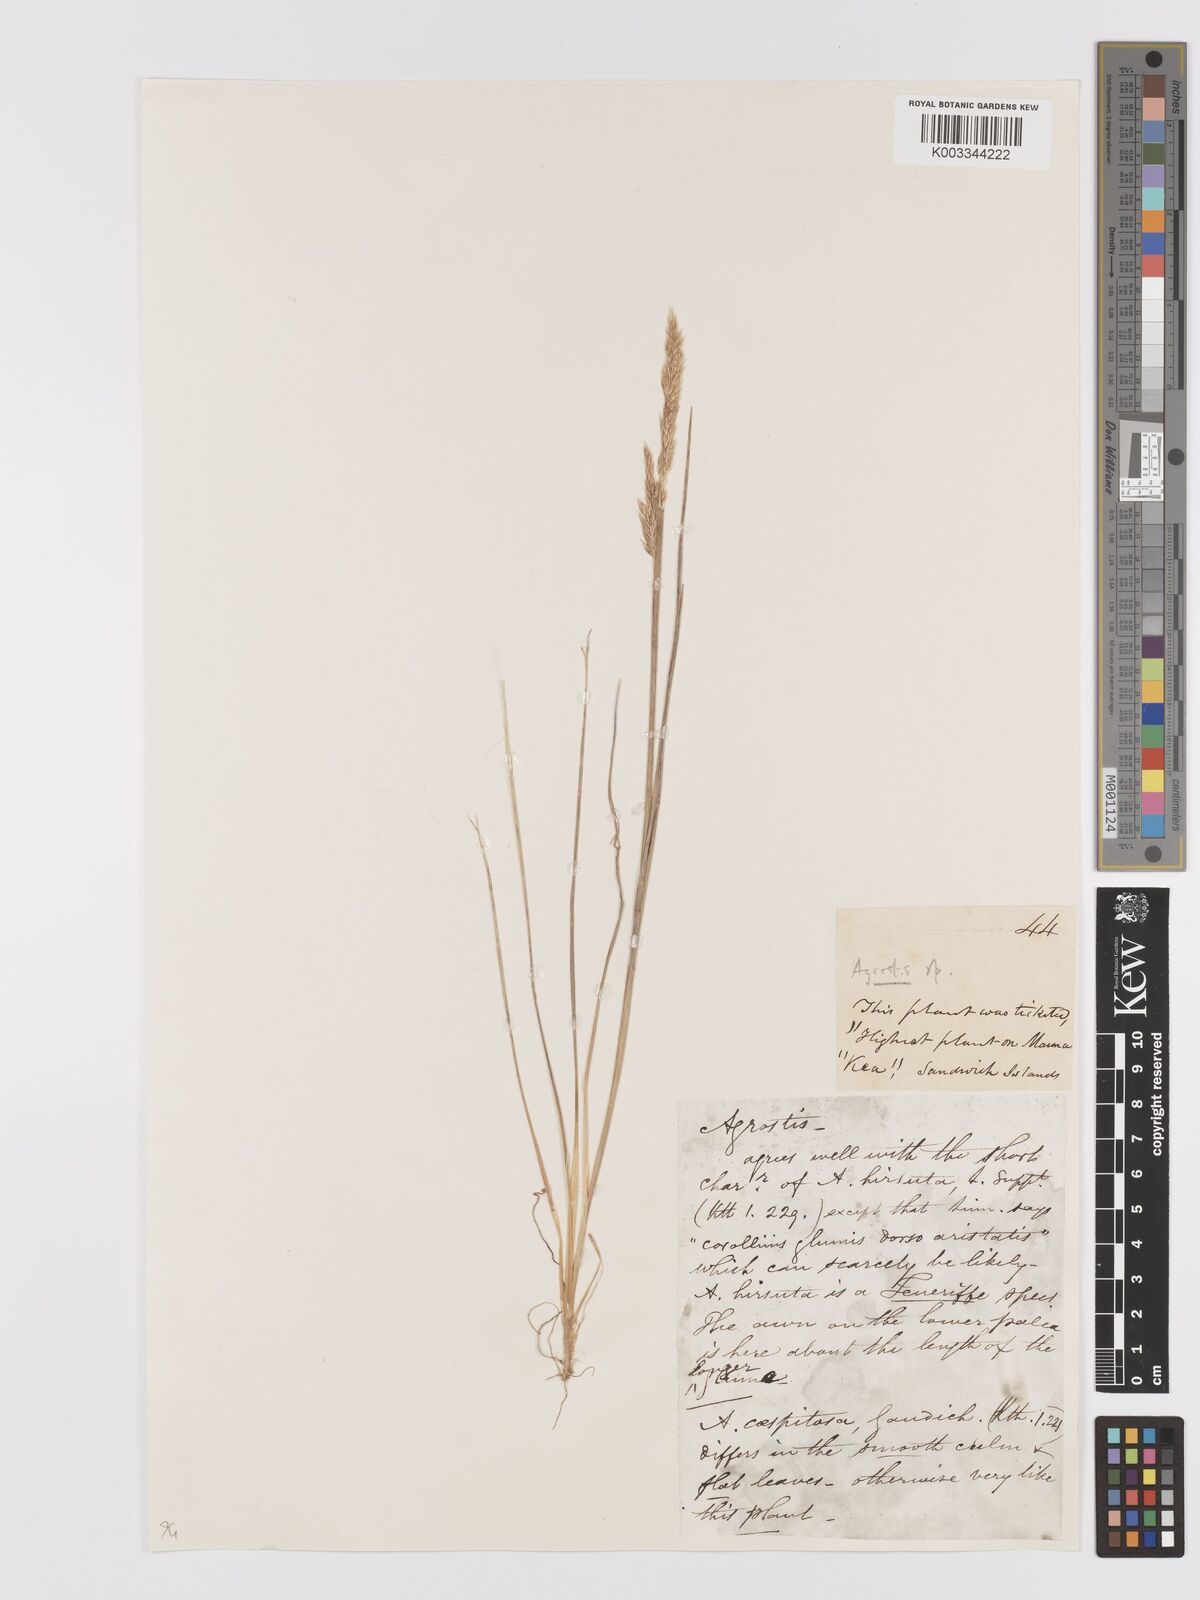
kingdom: Plantae
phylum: Tracheophyta
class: Liliopsida
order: Poales
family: Poaceae
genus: Agrostis
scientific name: Agrostis sandwicensis
